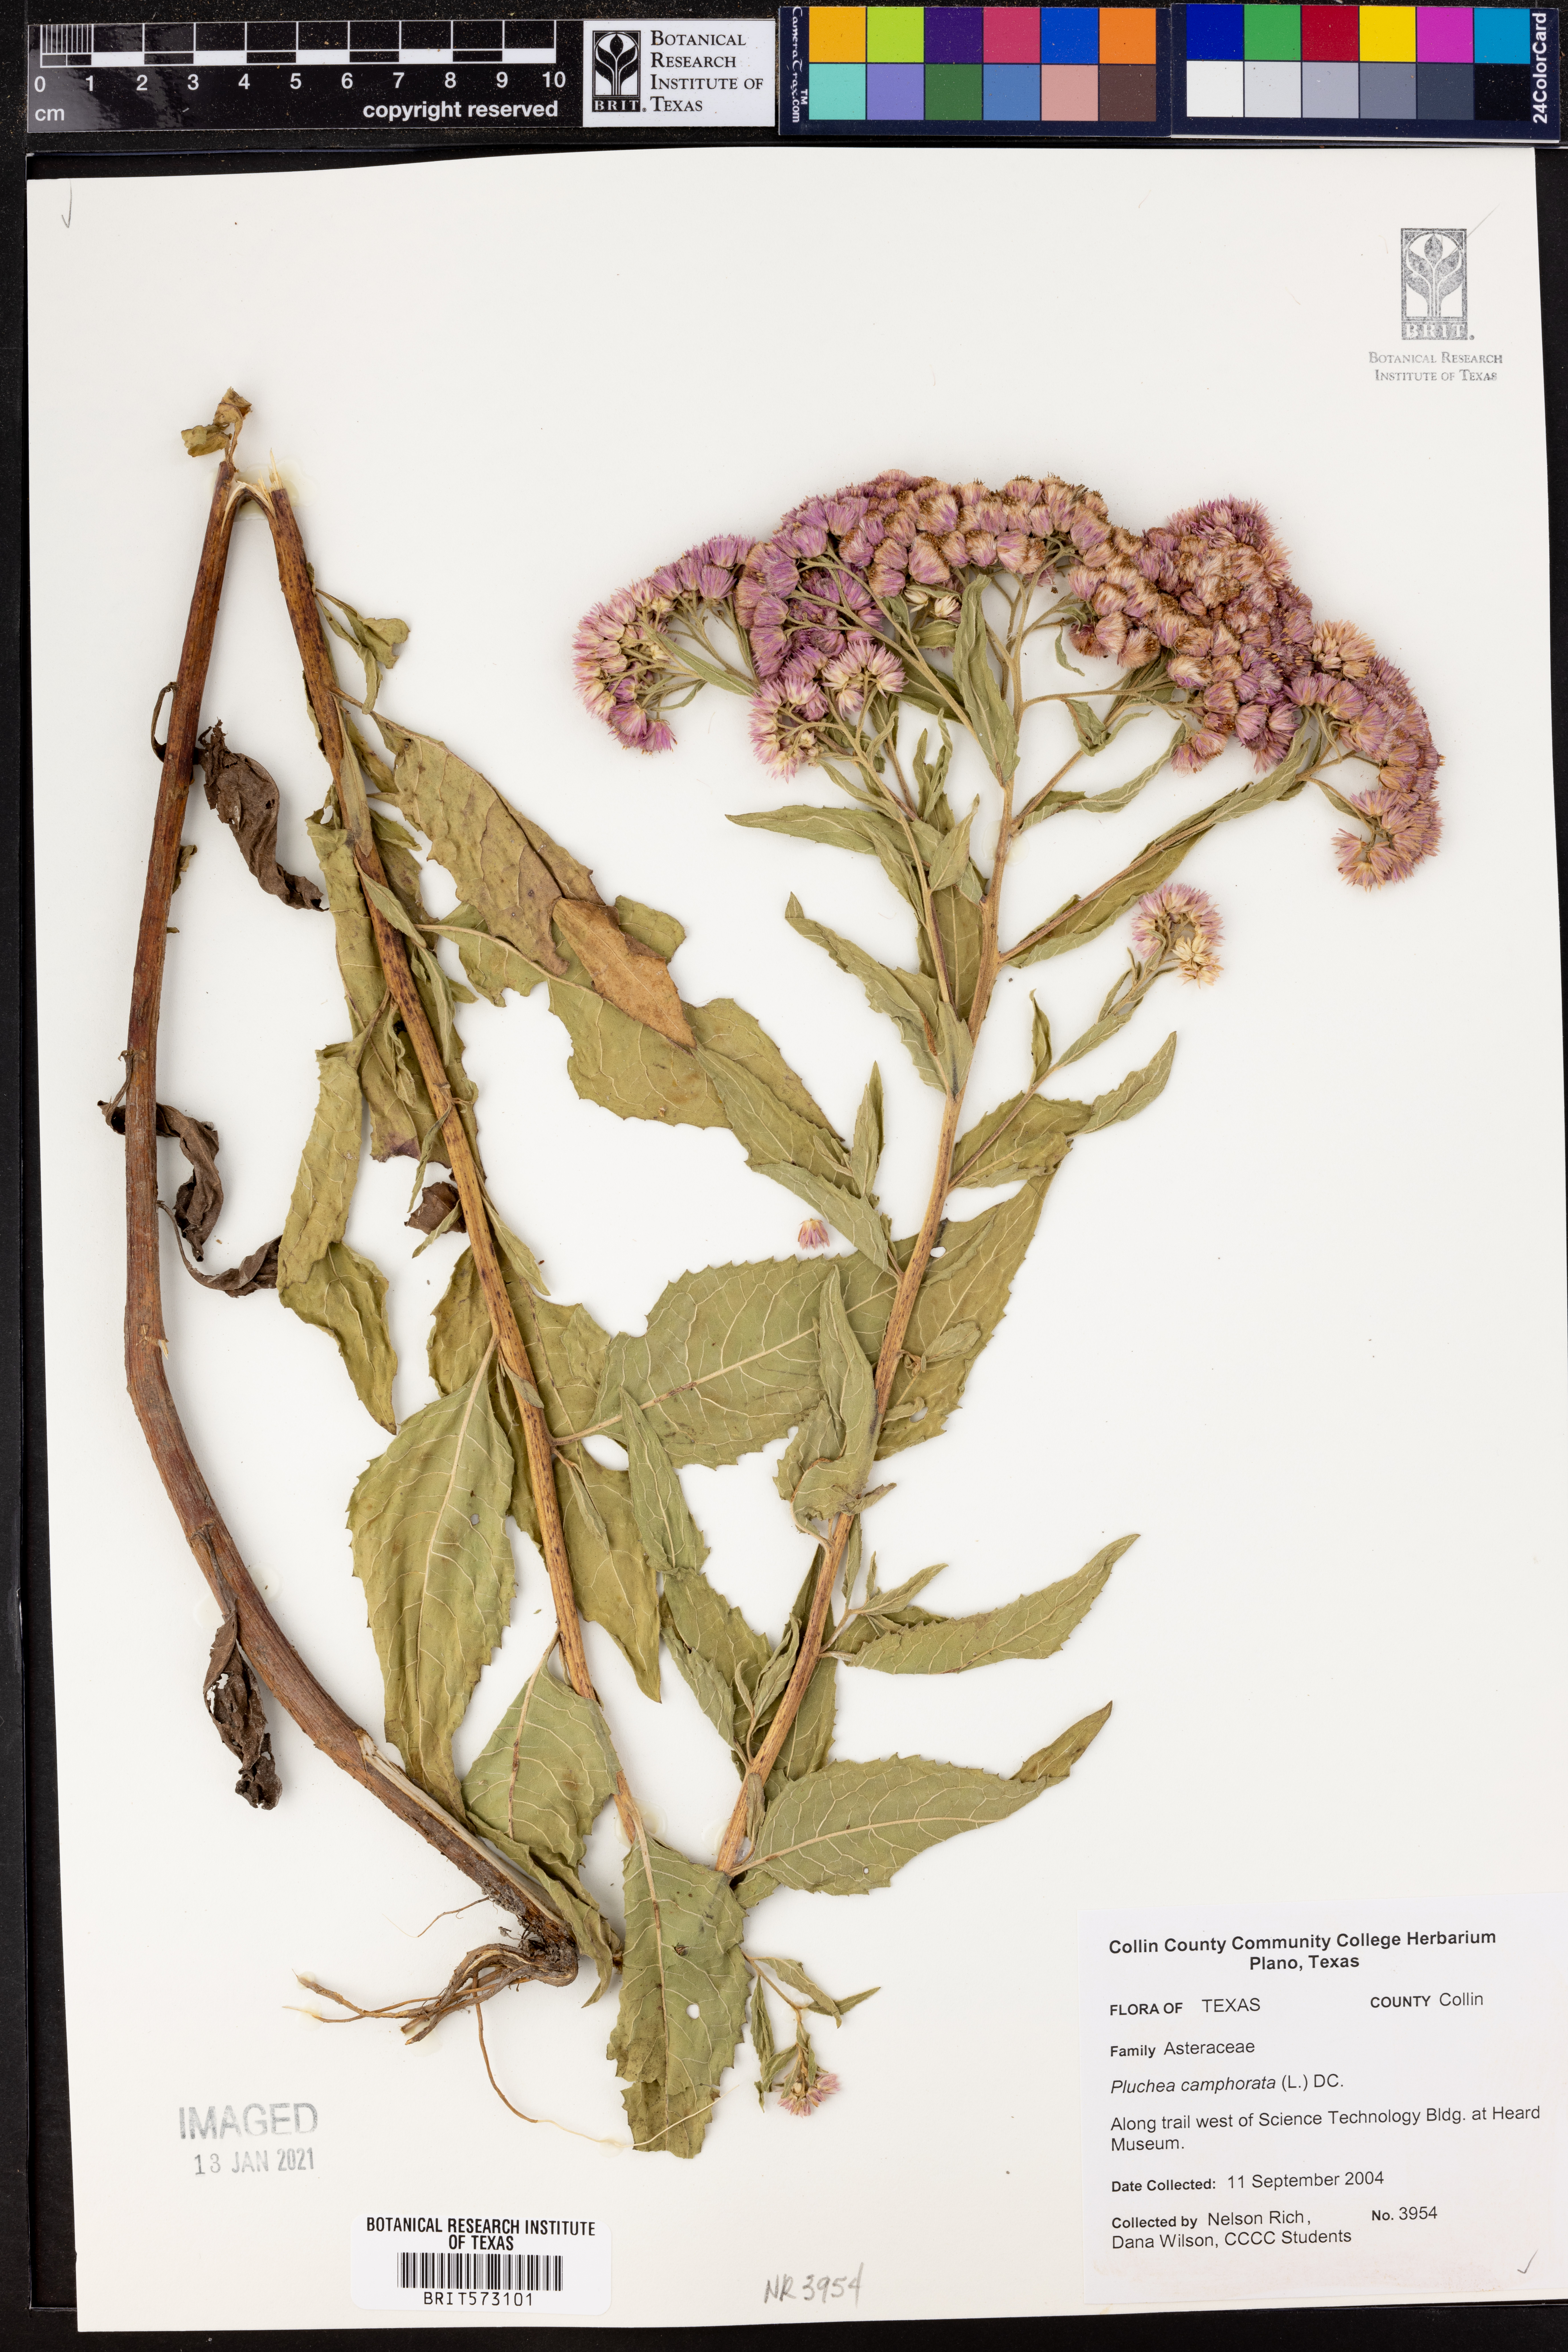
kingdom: Plantae
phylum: Tracheophyta
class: Magnoliopsida
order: Asterales
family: Asteraceae
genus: Pluchea
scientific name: Pluchea camphorata
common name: Camphor pluchea
